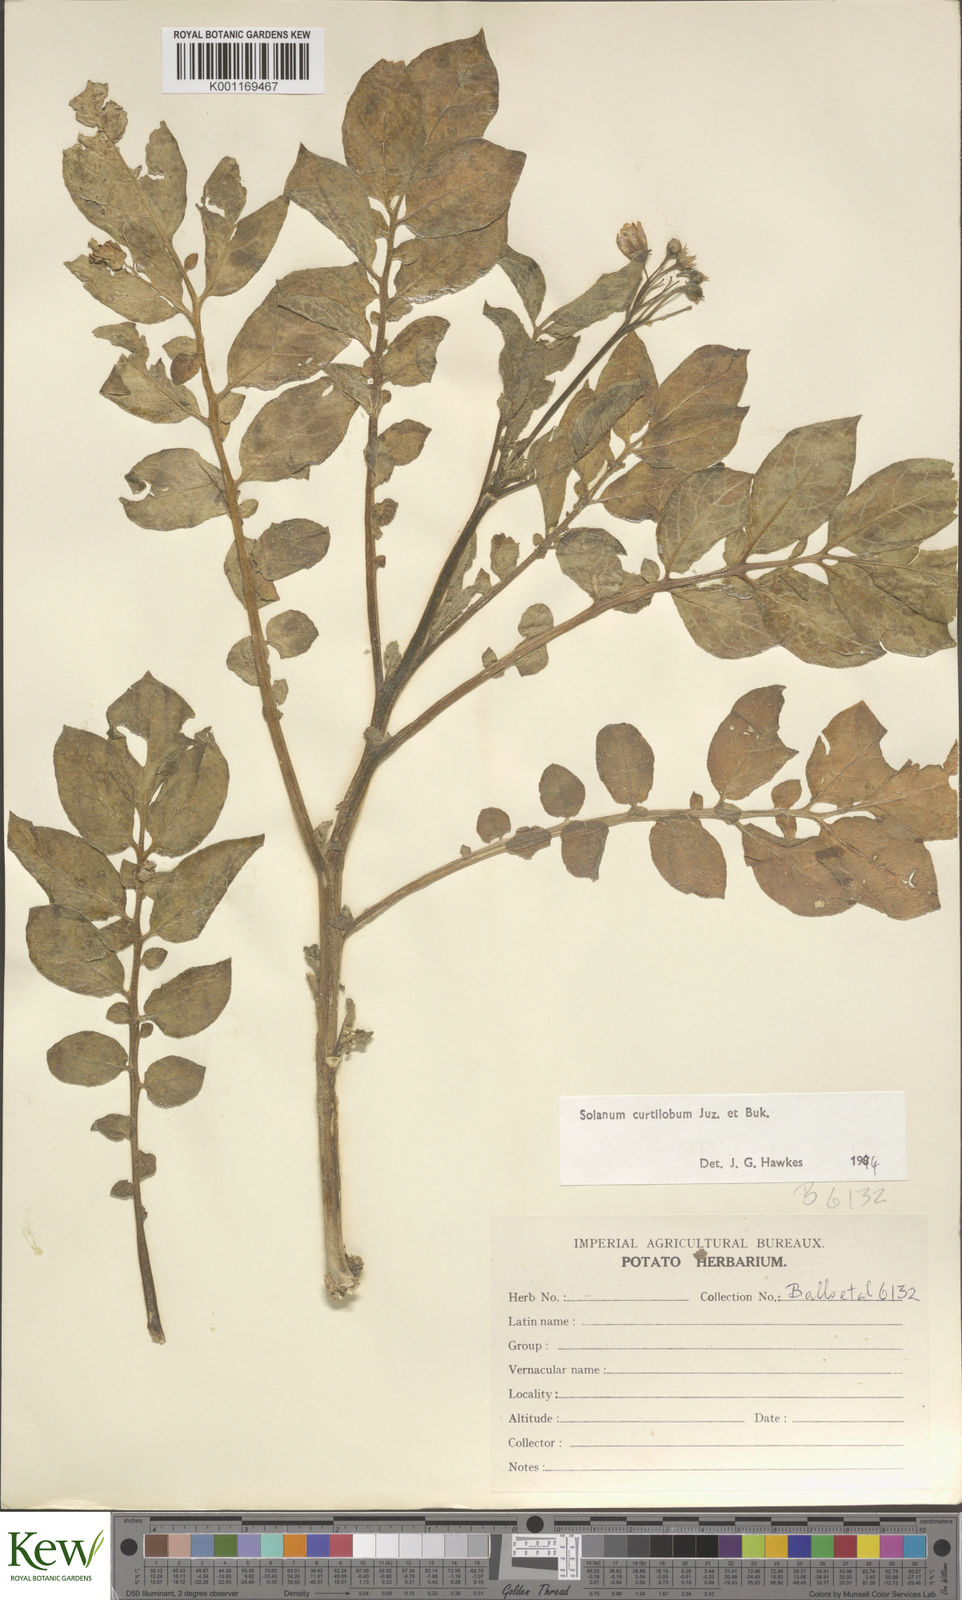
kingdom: Plantae
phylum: Tracheophyta
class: Magnoliopsida
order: Solanales
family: Solanaceae
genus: Solanum
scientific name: Solanum curtilobum
